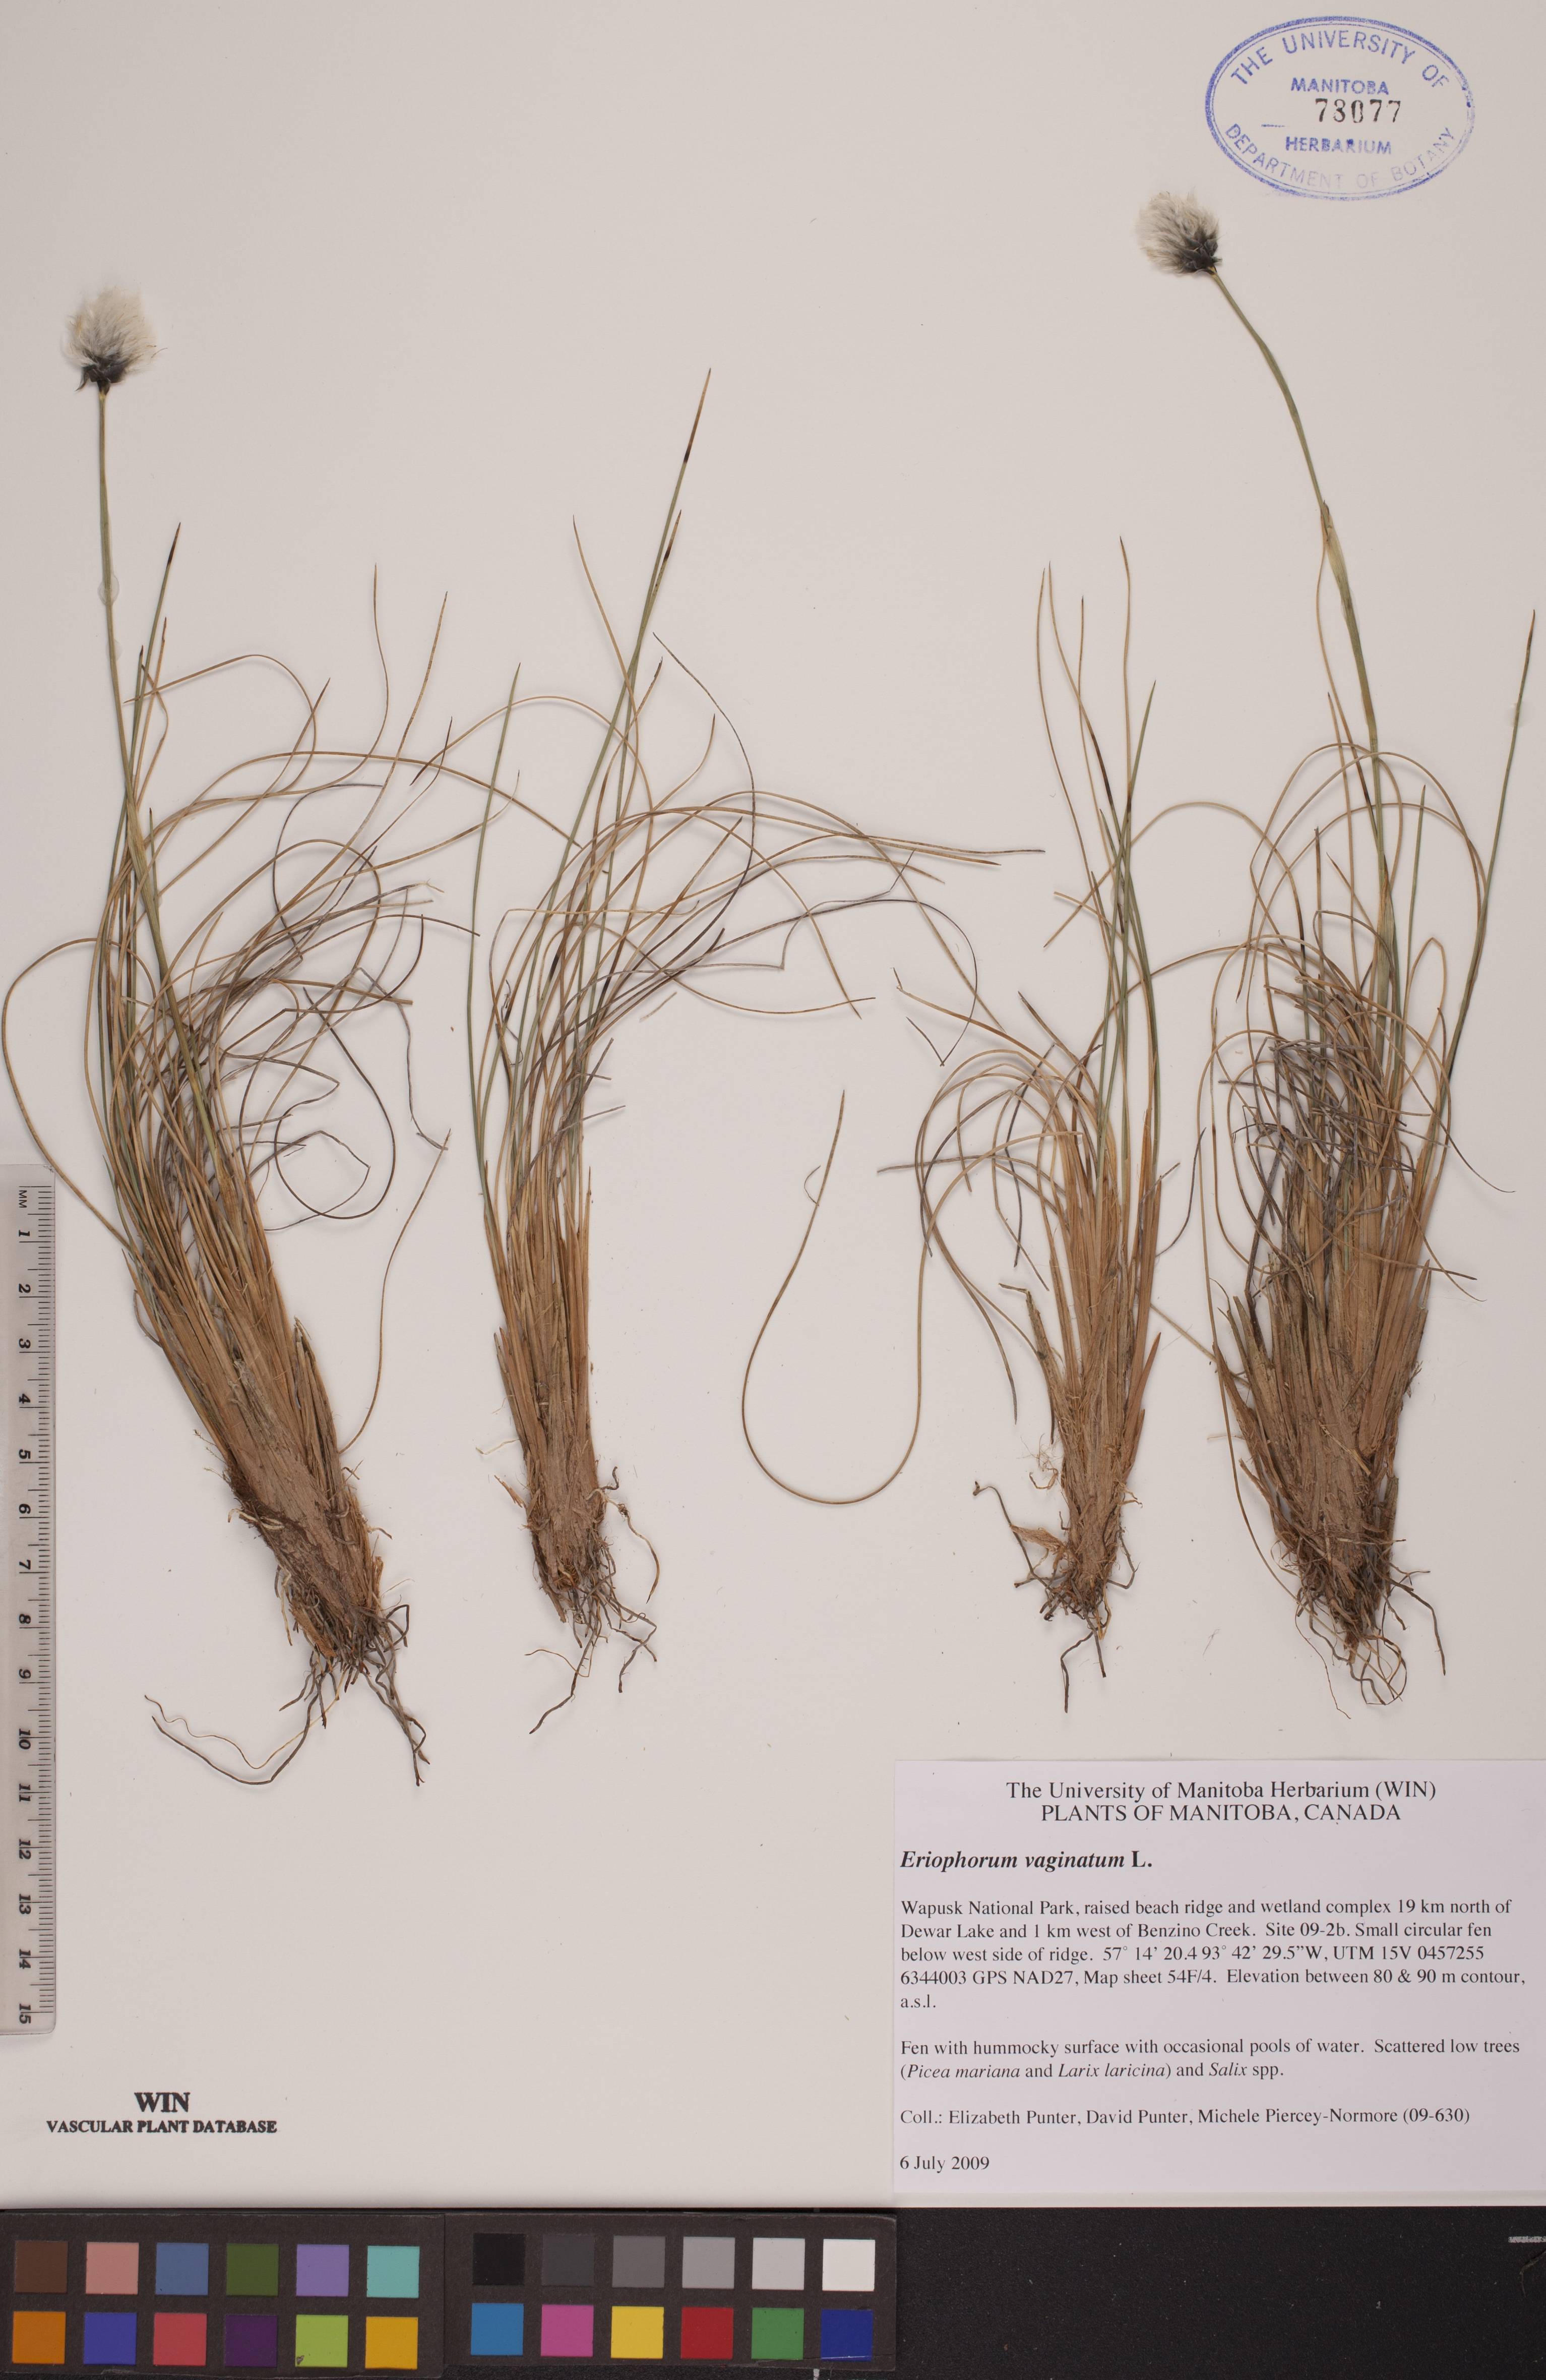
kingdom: Plantae
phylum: Tracheophyta
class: Liliopsida
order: Poales
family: Cyperaceae
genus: Eriophorum
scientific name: Eriophorum vaginatum
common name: Hare's-tail cottongrass
